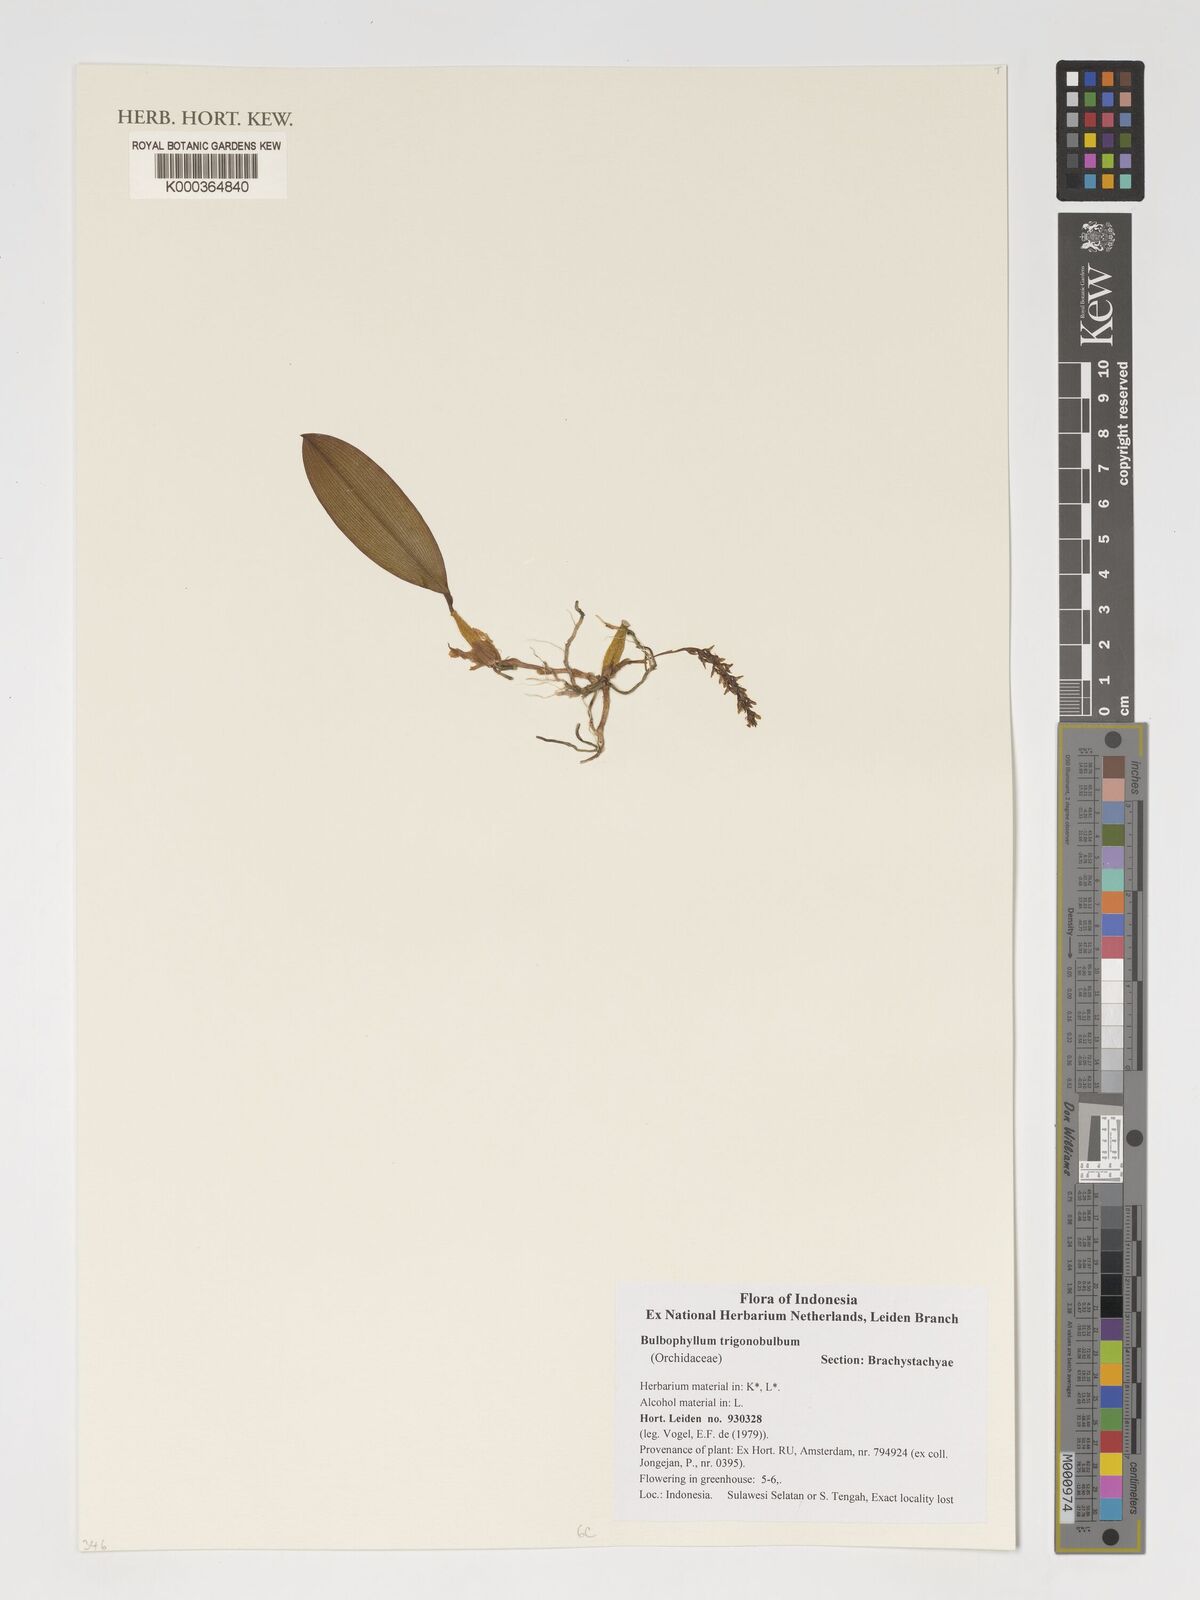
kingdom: Plantae
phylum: Tracheophyta
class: Liliopsida
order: Asparagales
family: Orchidaceae
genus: Bulbophyllum
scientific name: Bulbophyllum trigonobulbum
